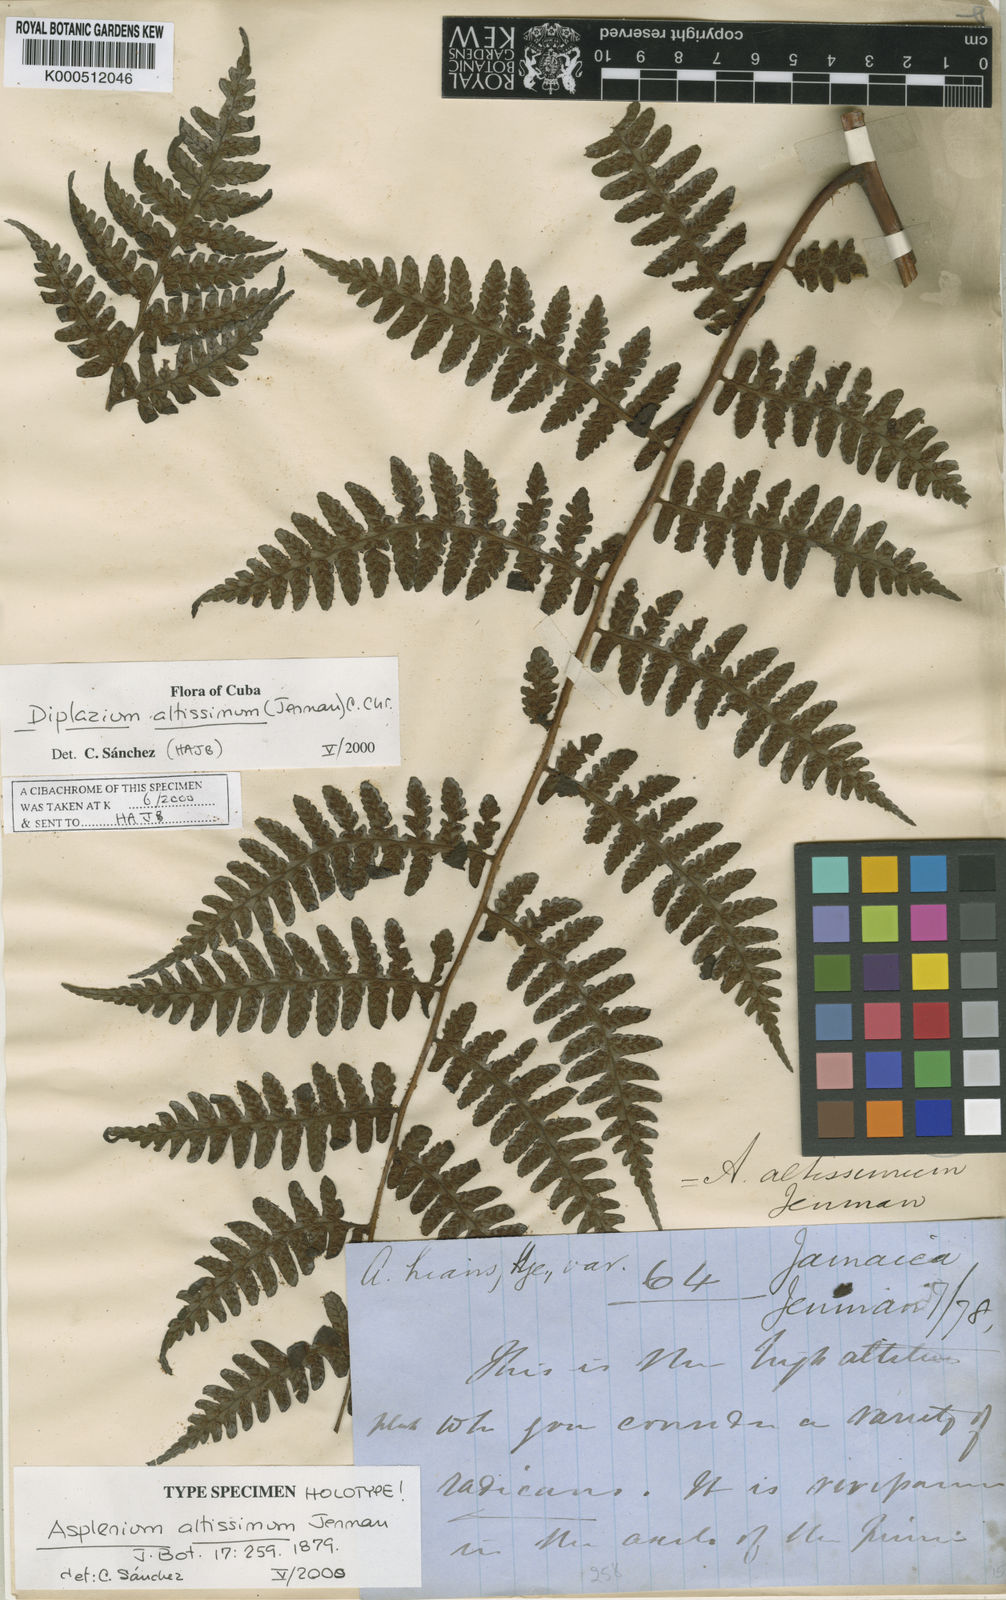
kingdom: Plantae
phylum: Tracheophyta
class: Polypodiopsida
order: Polypodiales
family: Athyriaceae
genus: Diplazium
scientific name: Diplazium altissimum
